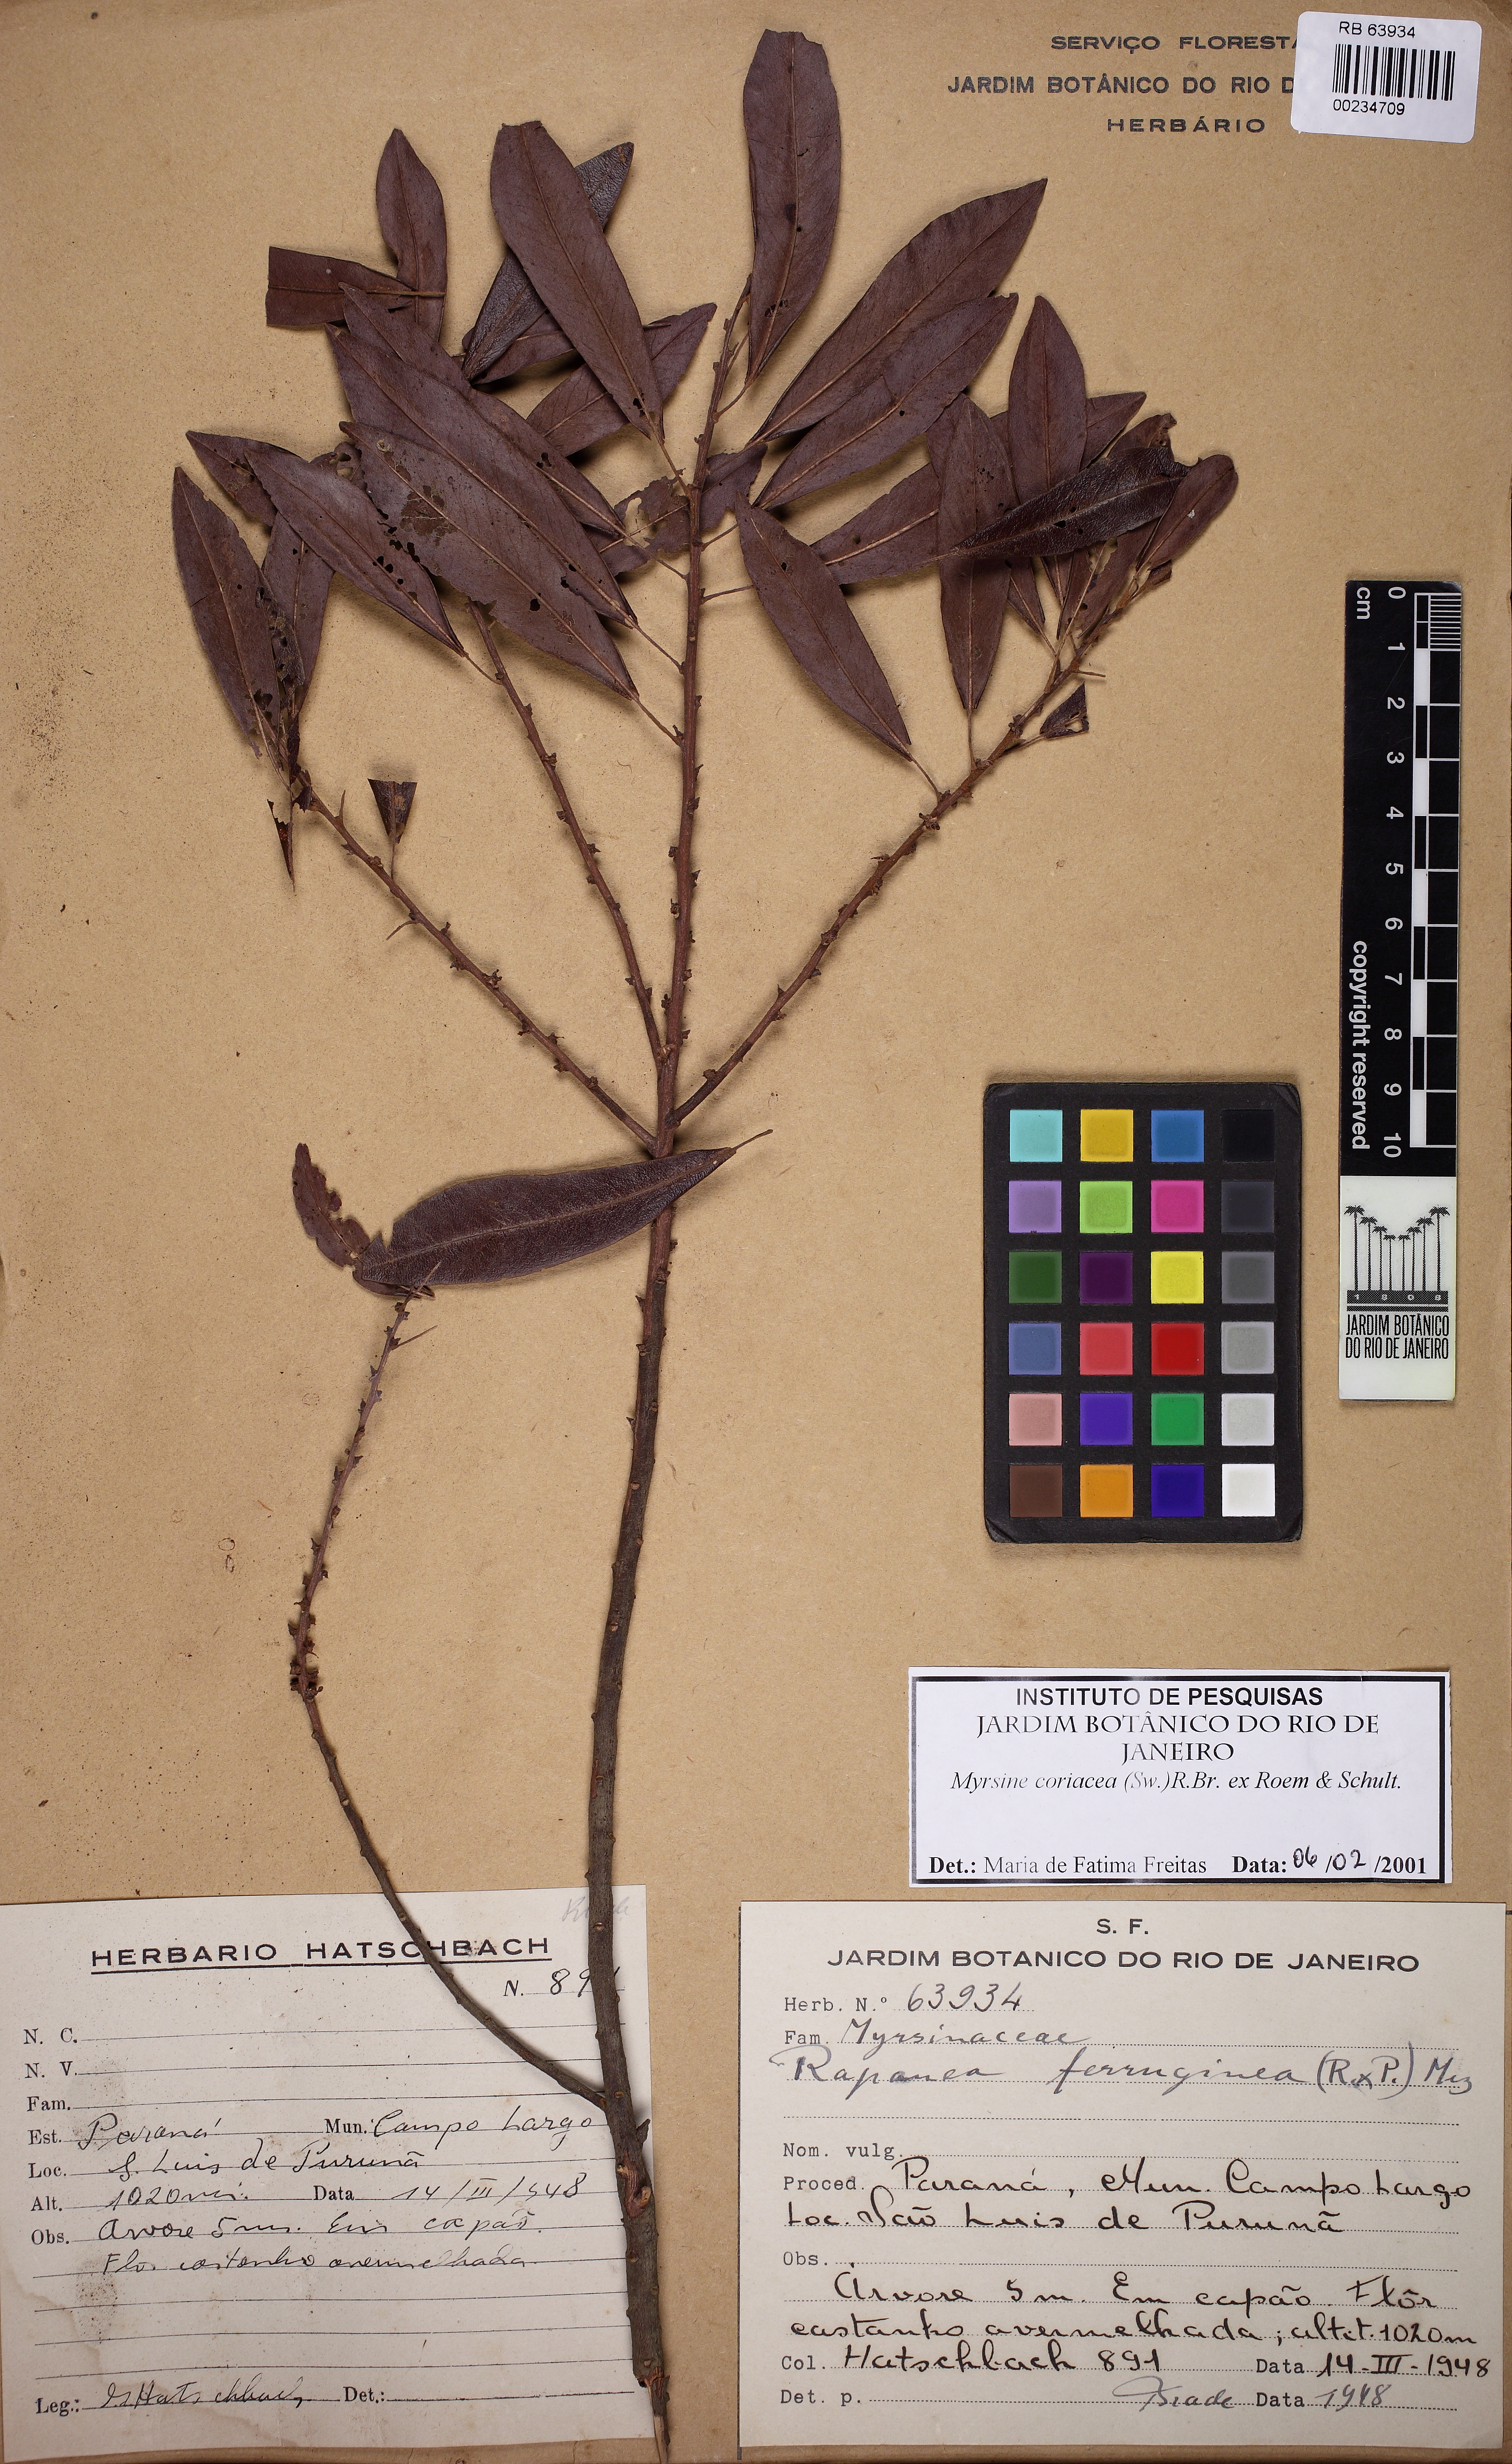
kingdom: Plantae
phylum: Tracheophyta
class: Magnoliopsida
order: Ericales
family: Primulaceae
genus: Myrsine
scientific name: Myrsine coriacea
